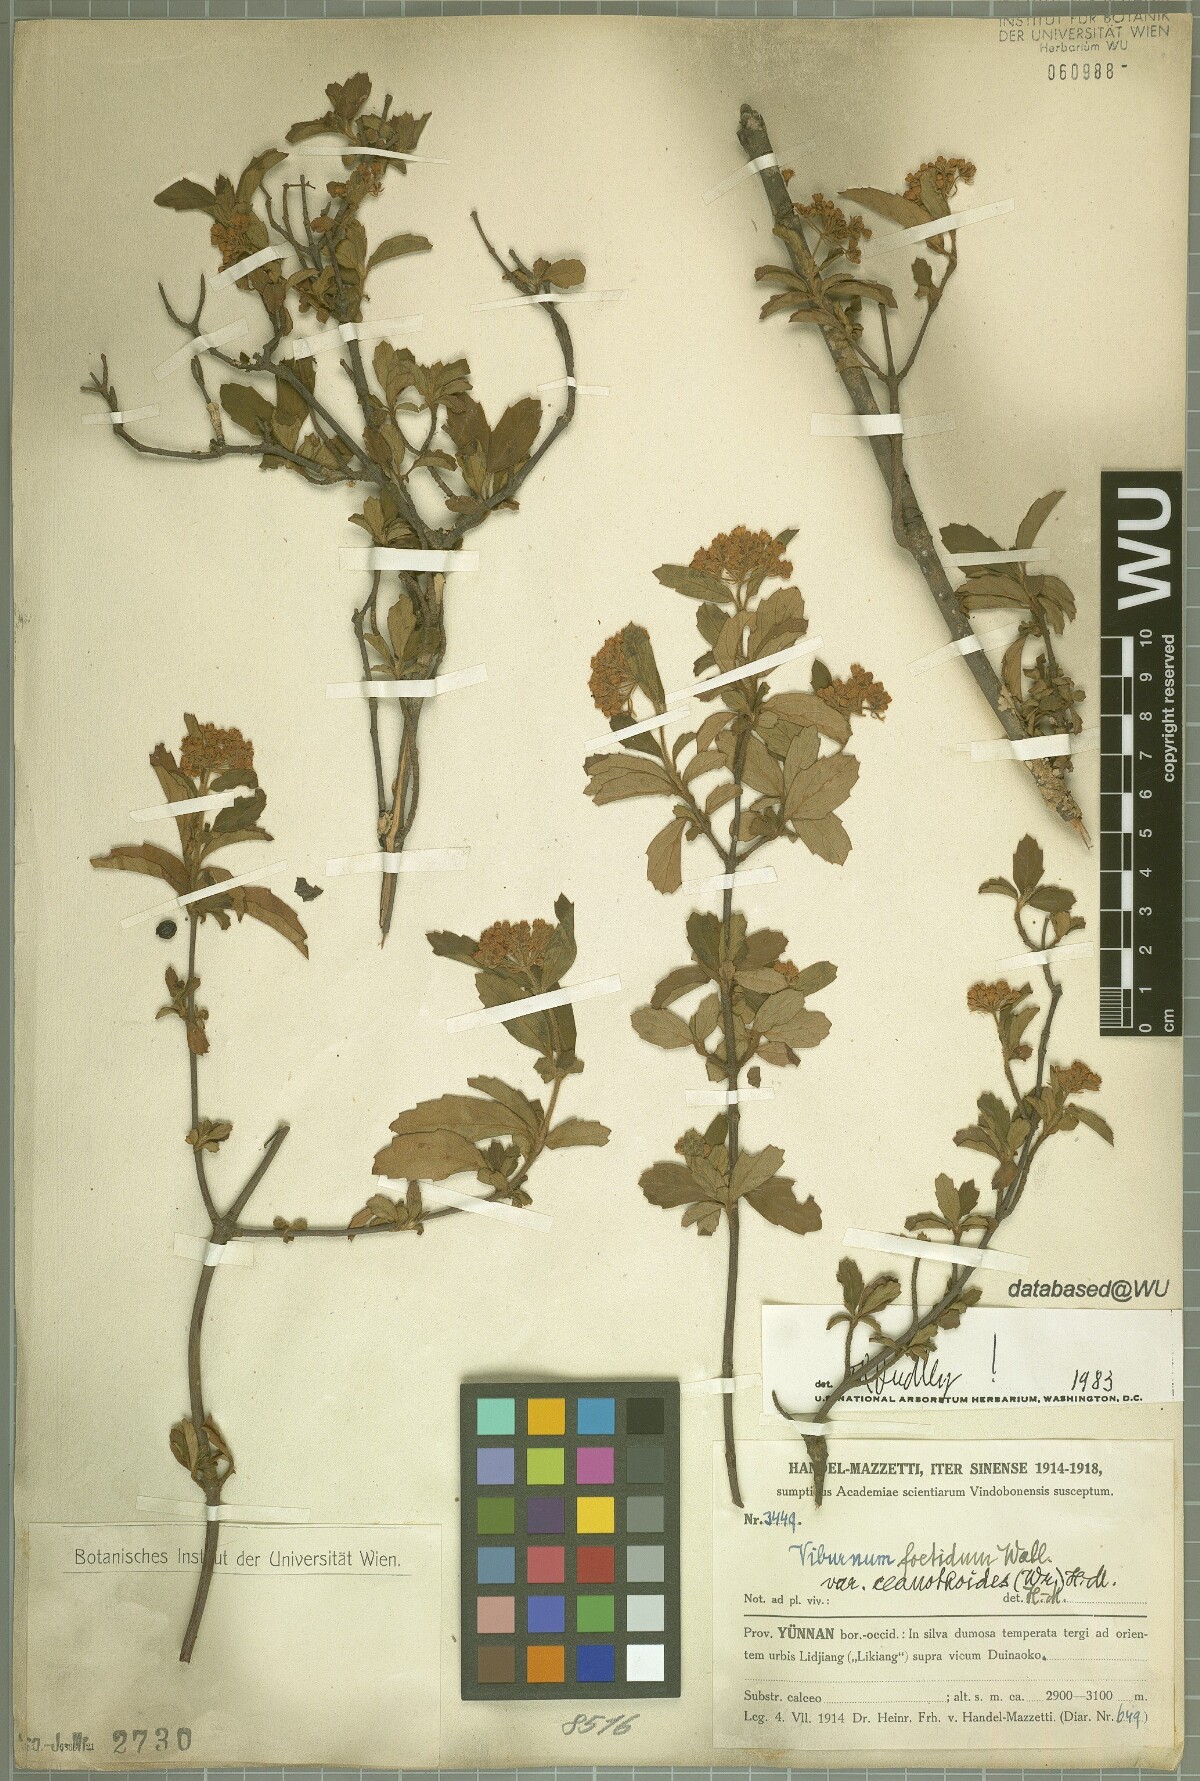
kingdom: Plantae
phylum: Tracheophyta
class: Magnoliopsida
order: Dipsacales
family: Viburnaceae
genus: Viburnum
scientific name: Viburnum foetidum
